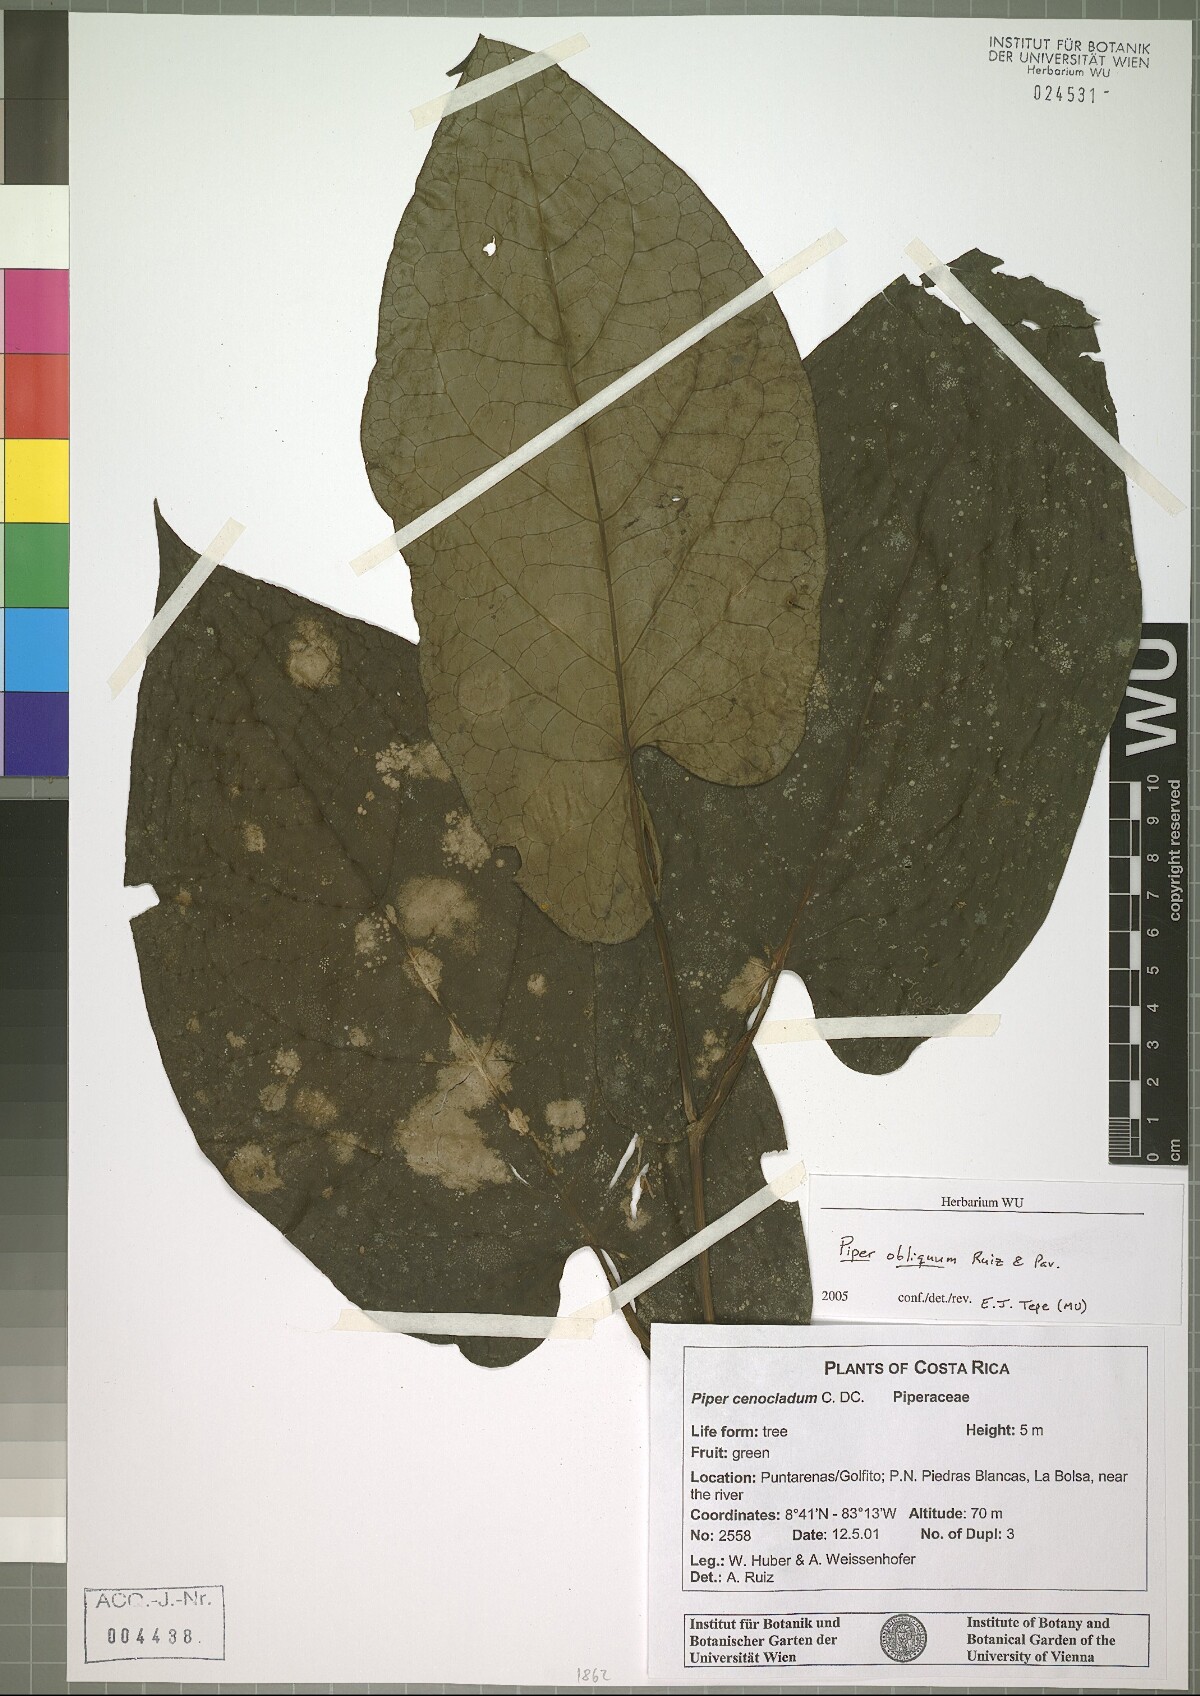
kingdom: Plantae
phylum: Tracheophyta
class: Magnoliopsida
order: Piperales
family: Piperaceae
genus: Piper
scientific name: Piper obliquum
